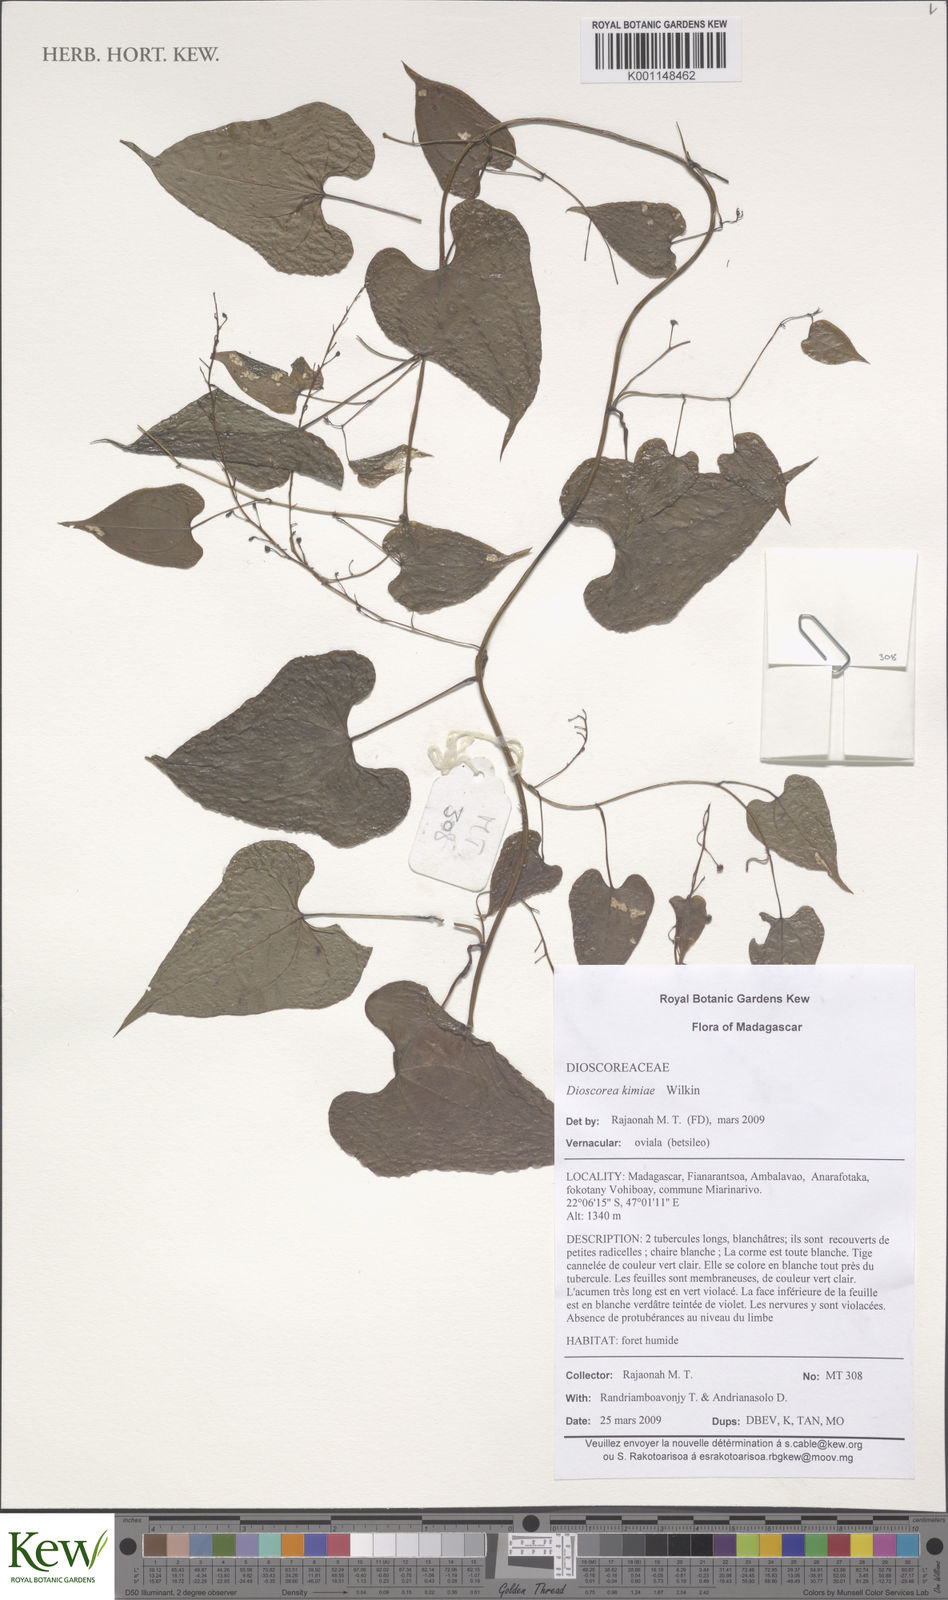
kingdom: Plantae
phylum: Tracheophyta
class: Liliopsida
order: Dioscoreales
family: Dioscoreaceae
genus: Dioscorea
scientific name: Dioscorea kimiae
